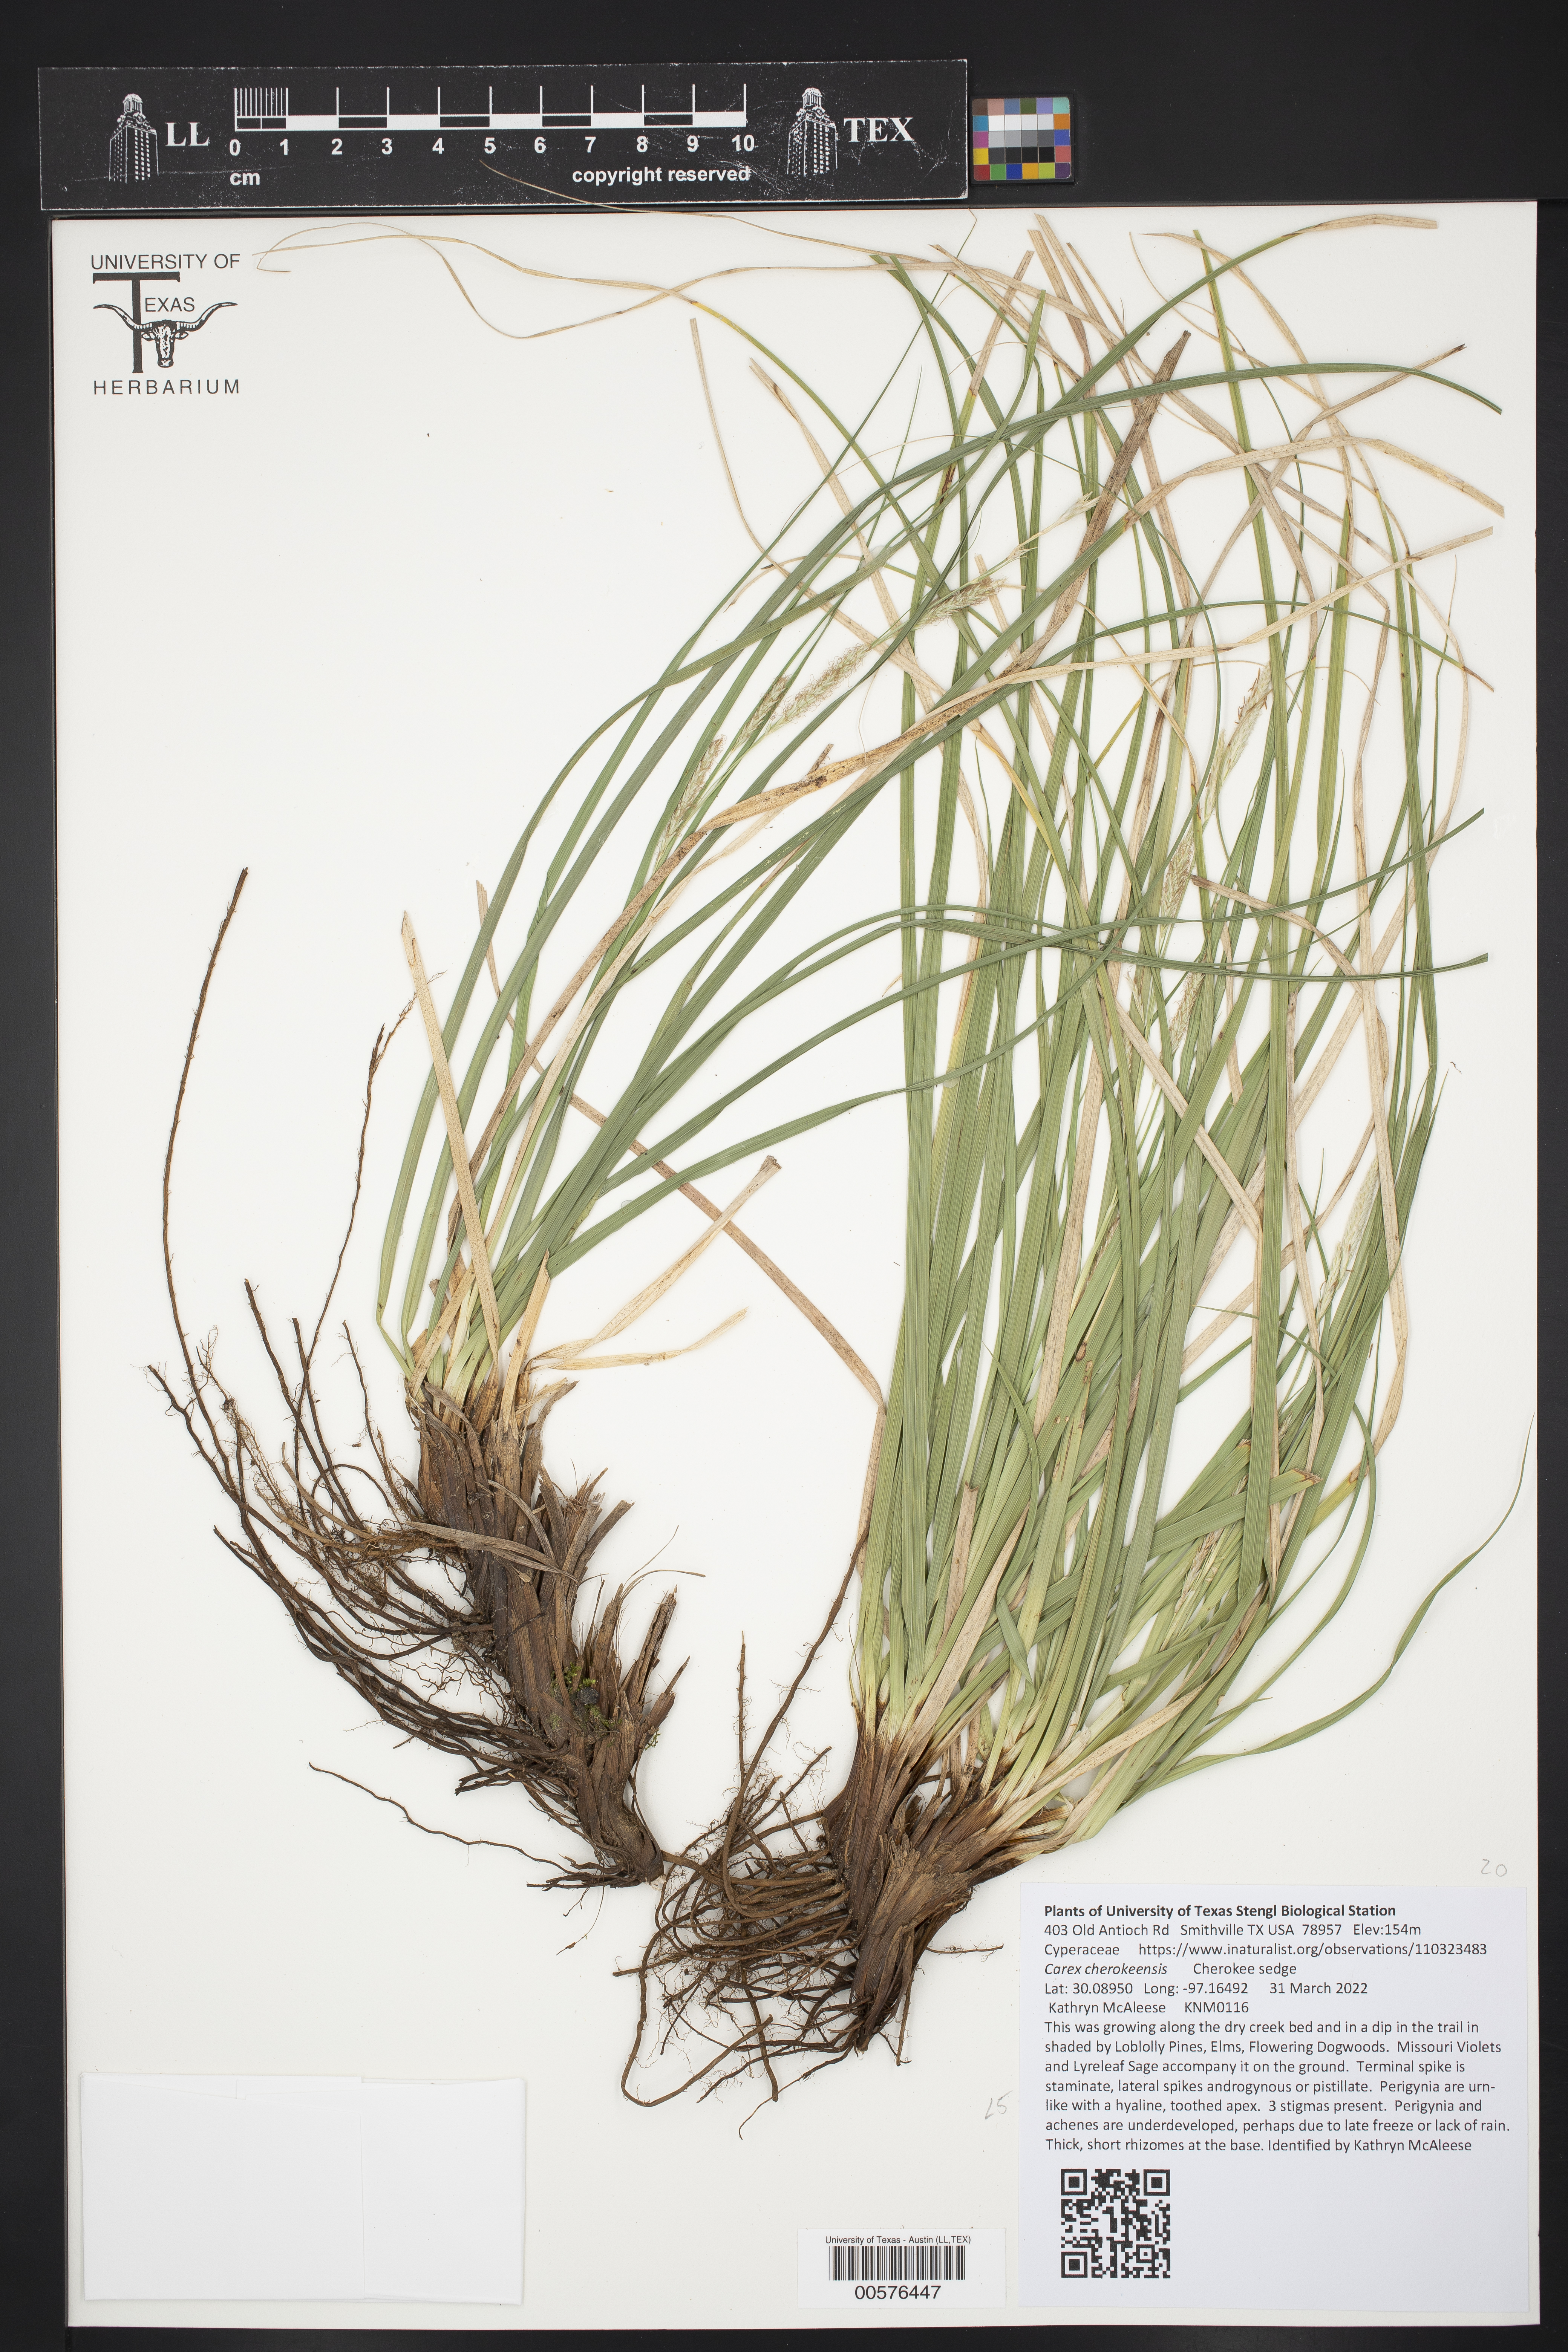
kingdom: Plantae
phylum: Tracheophyta
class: Liliopsida
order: Poales
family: Cyperaceae
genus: Carex
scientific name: Carex cherokeensis
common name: Cherokee sedge
